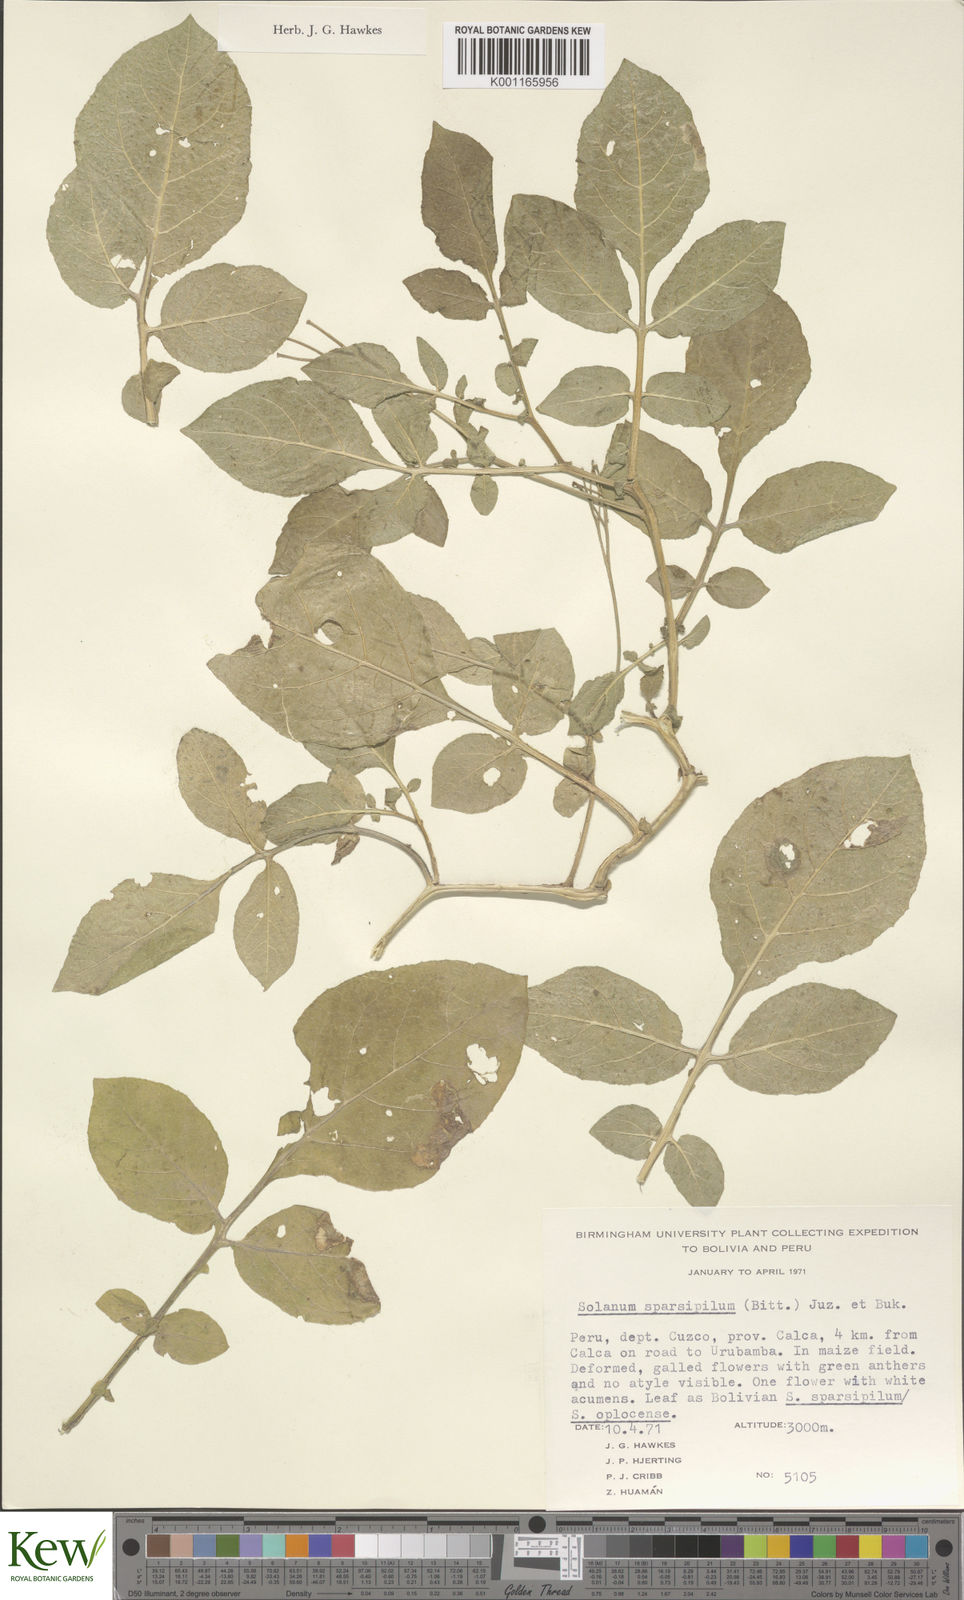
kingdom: Plantae
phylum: Tracheophyta
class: Magnoliopsida
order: Solanales
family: Solanaceae
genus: Solanum
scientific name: Solanum brevicaule
